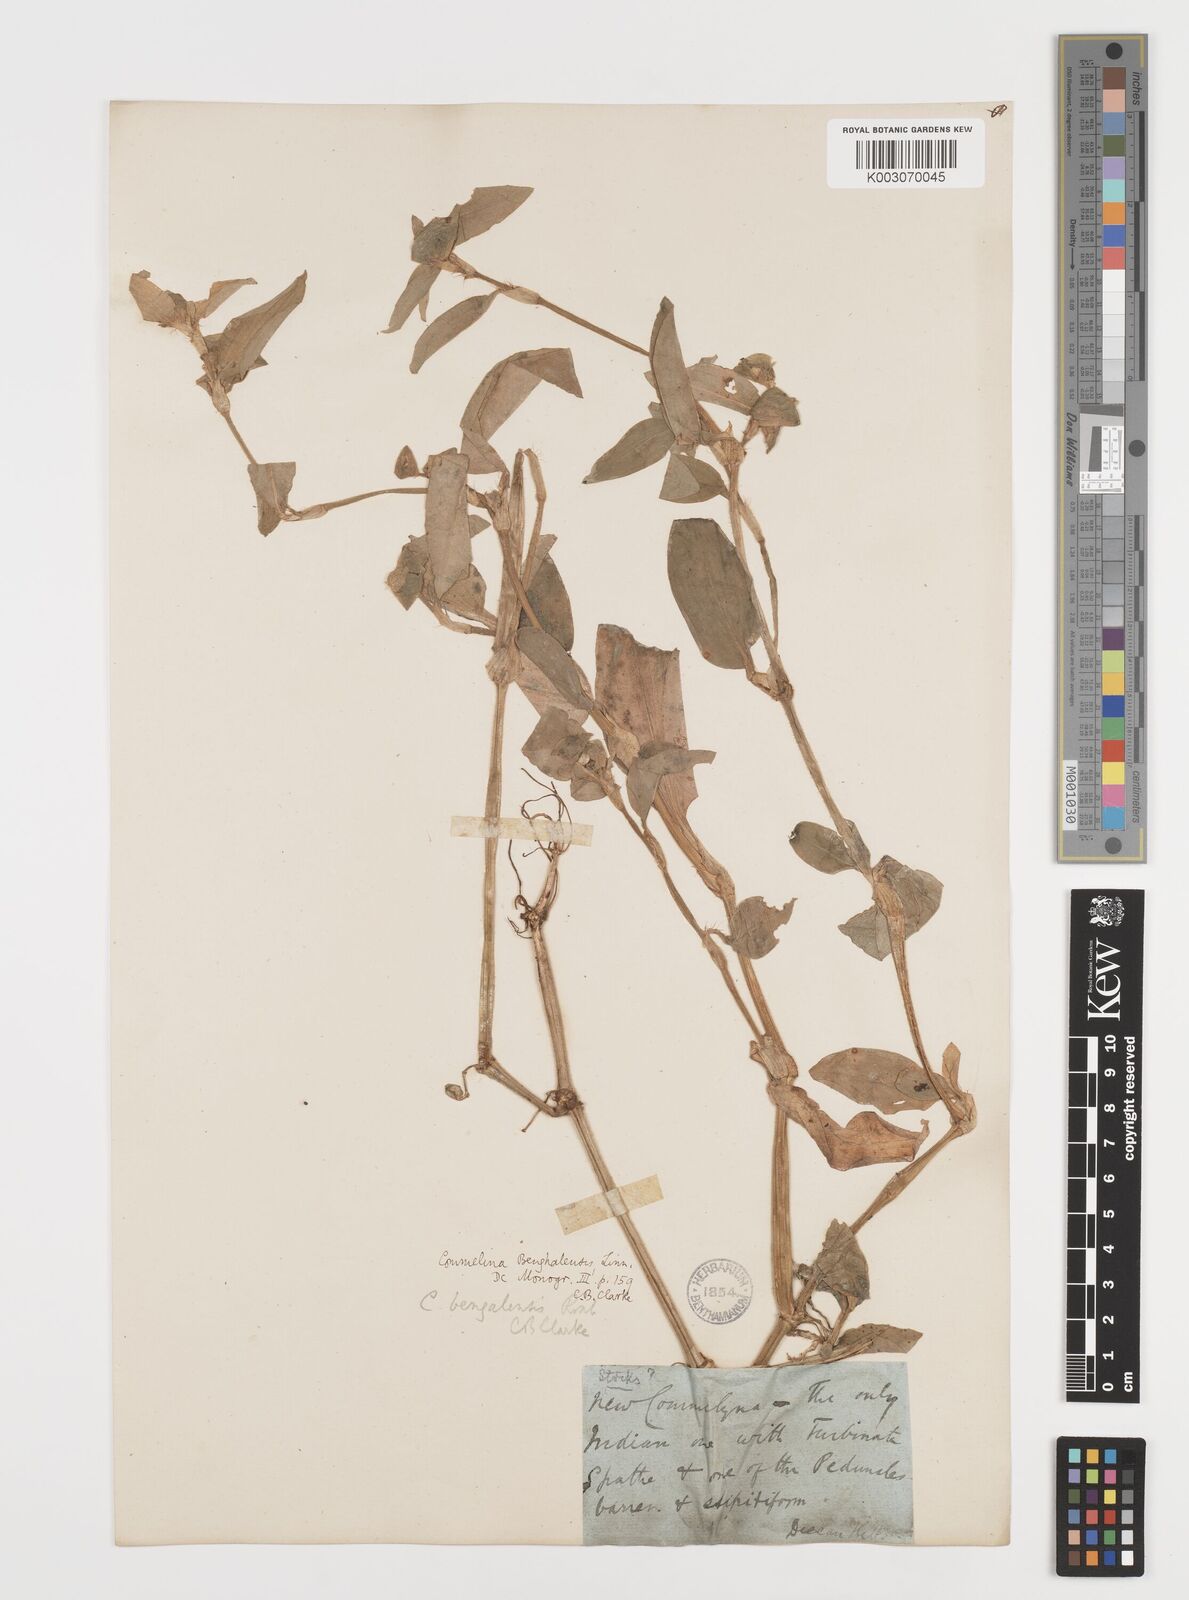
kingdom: Plantae
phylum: Tracheophyta
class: Liliopsida
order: Commelinales
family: Commelinaceae
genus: Commelina
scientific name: Commelina benghalensis
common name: Jio
